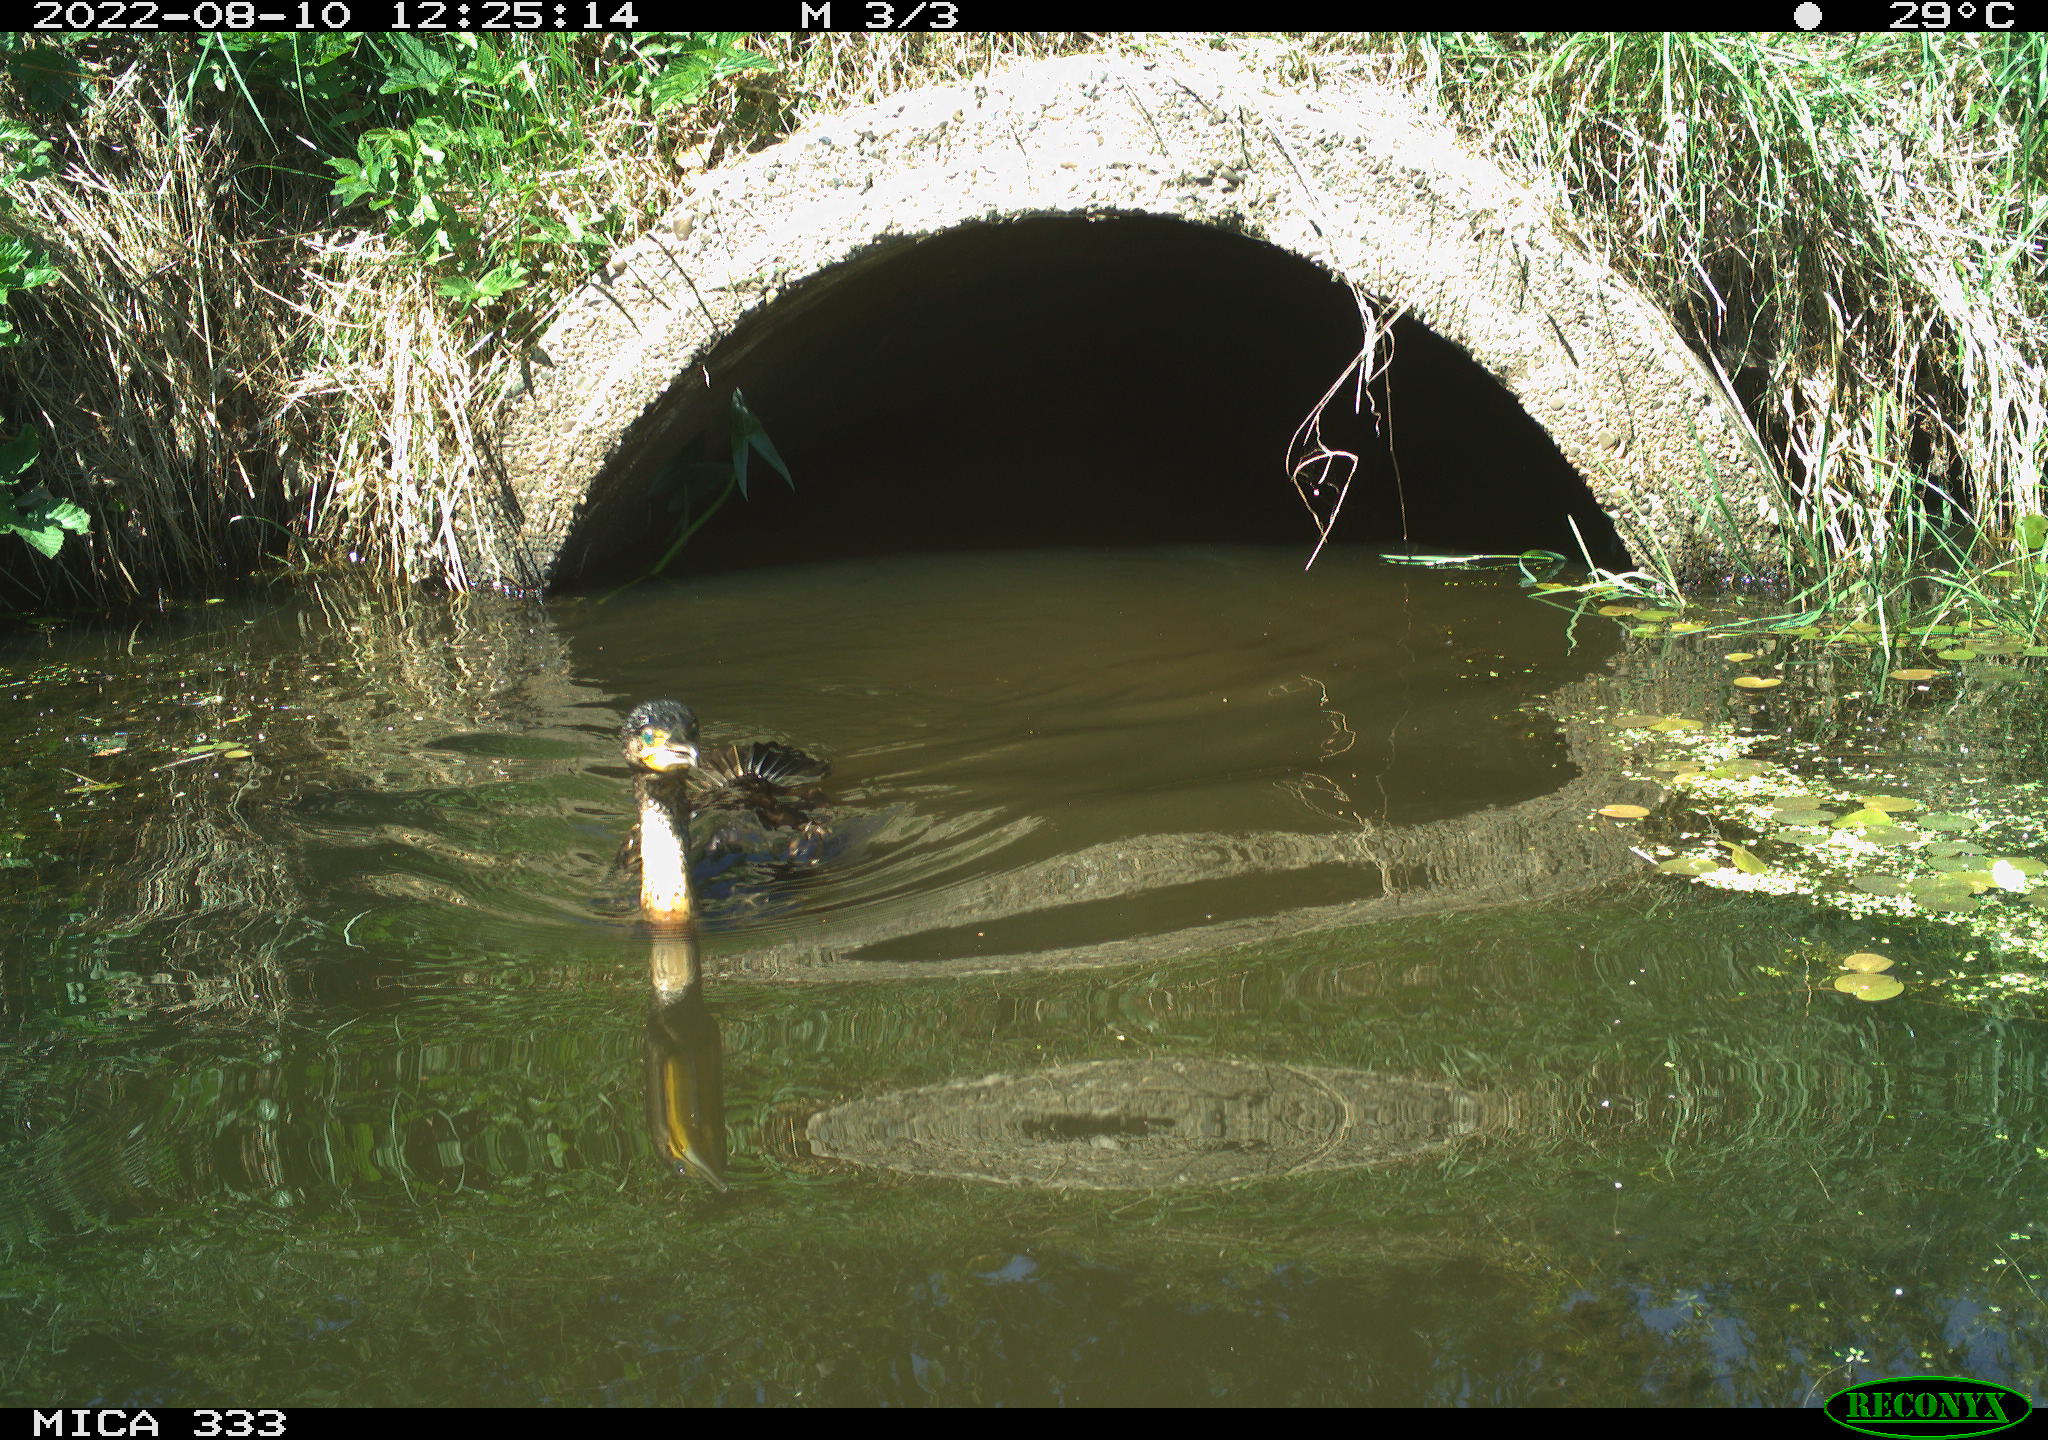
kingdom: Animalia
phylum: Chordata
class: Aves
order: Suliformes
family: Phalacrocoracidae
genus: Phalacrocorax
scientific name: Phalacrocorax carbo
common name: Great cormorant
